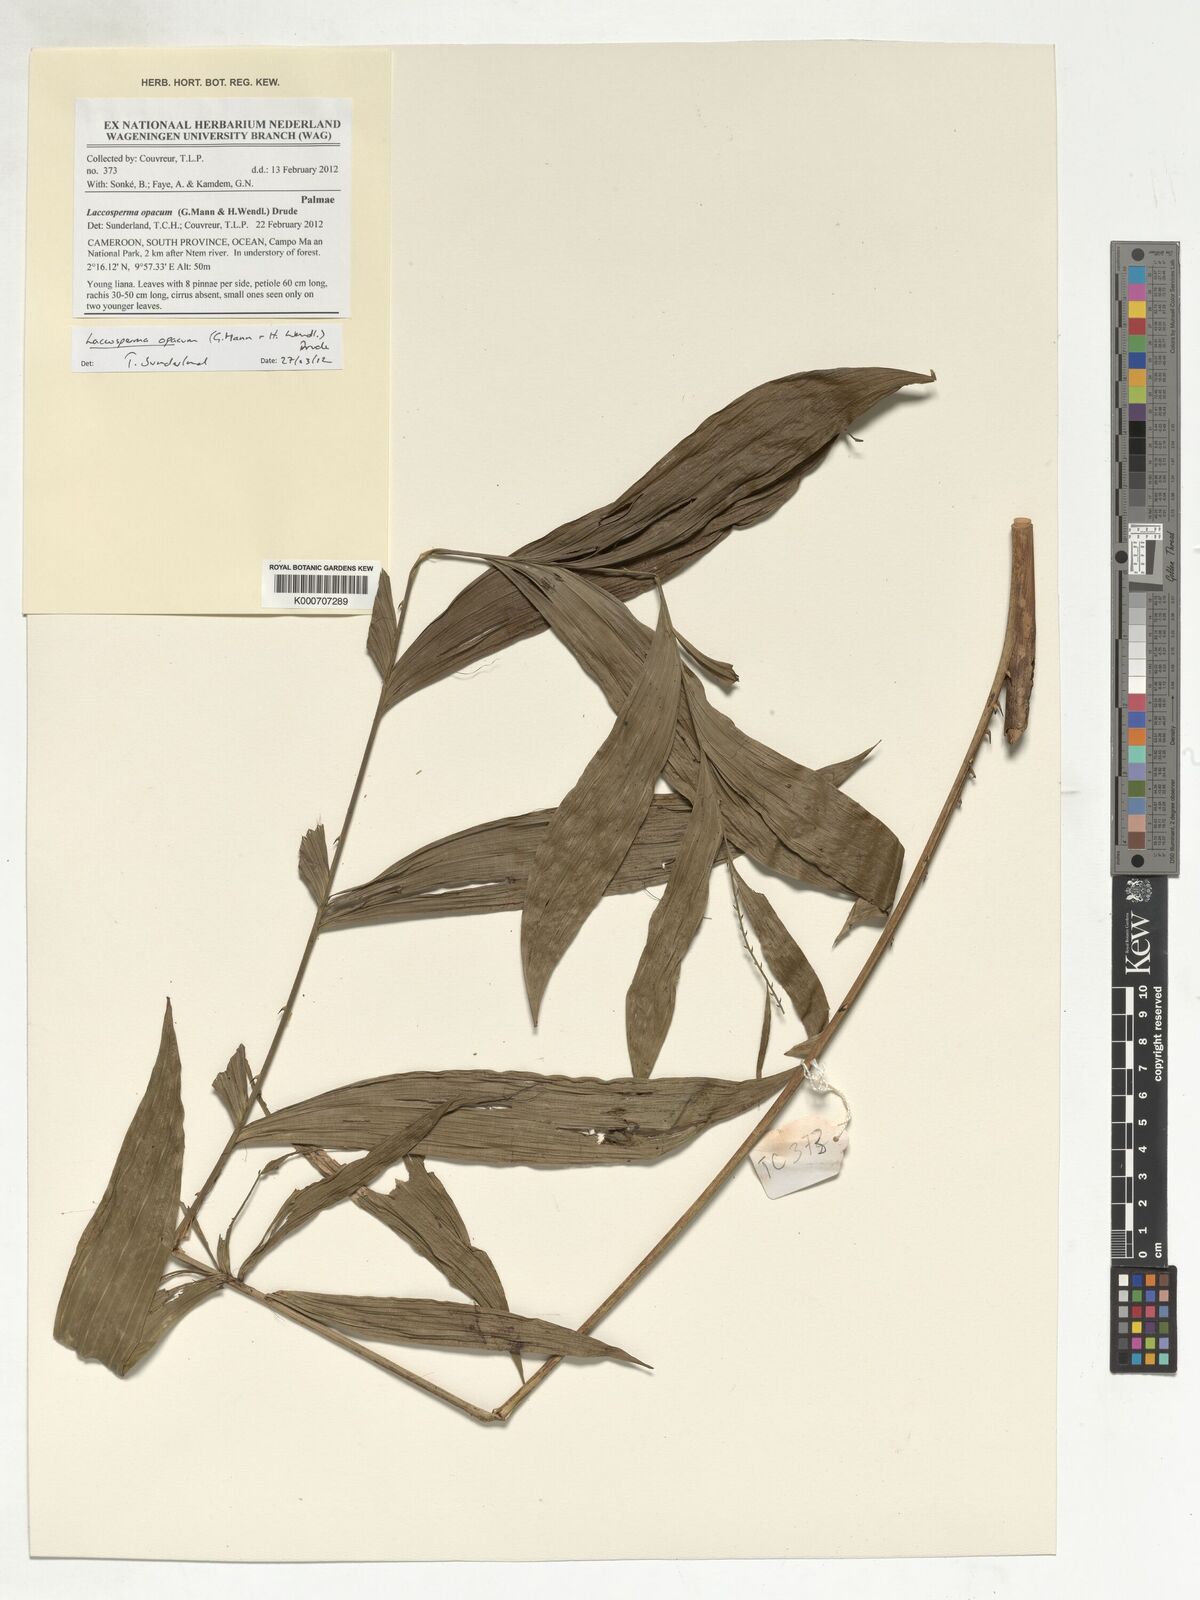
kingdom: Plantae
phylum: Tracheophyta
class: Liliopsida
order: Arecales
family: Arecaceae
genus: Laccosperma
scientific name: Laccosperma opacum
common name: Rattan
